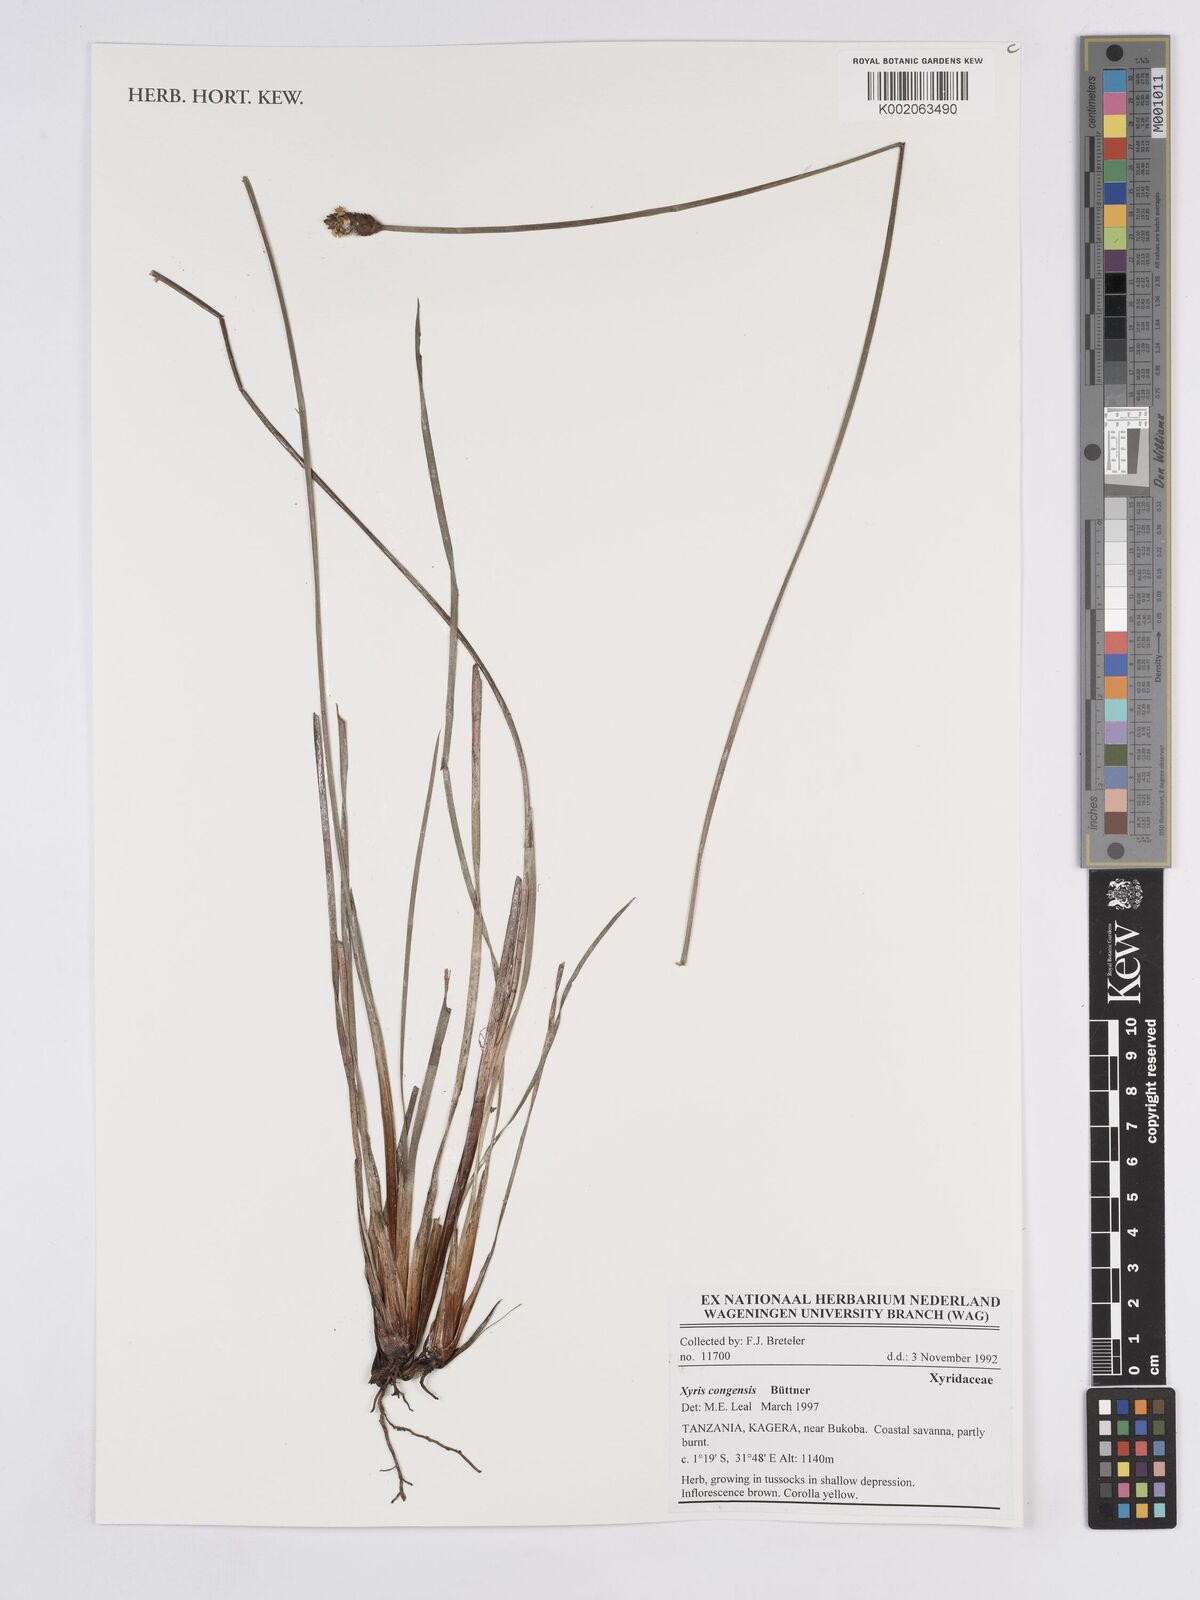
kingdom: Plantae
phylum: Tracheophyta
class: Liliopsida
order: Poales
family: Xyridaceae
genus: Xyris
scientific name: Xyris congensis
